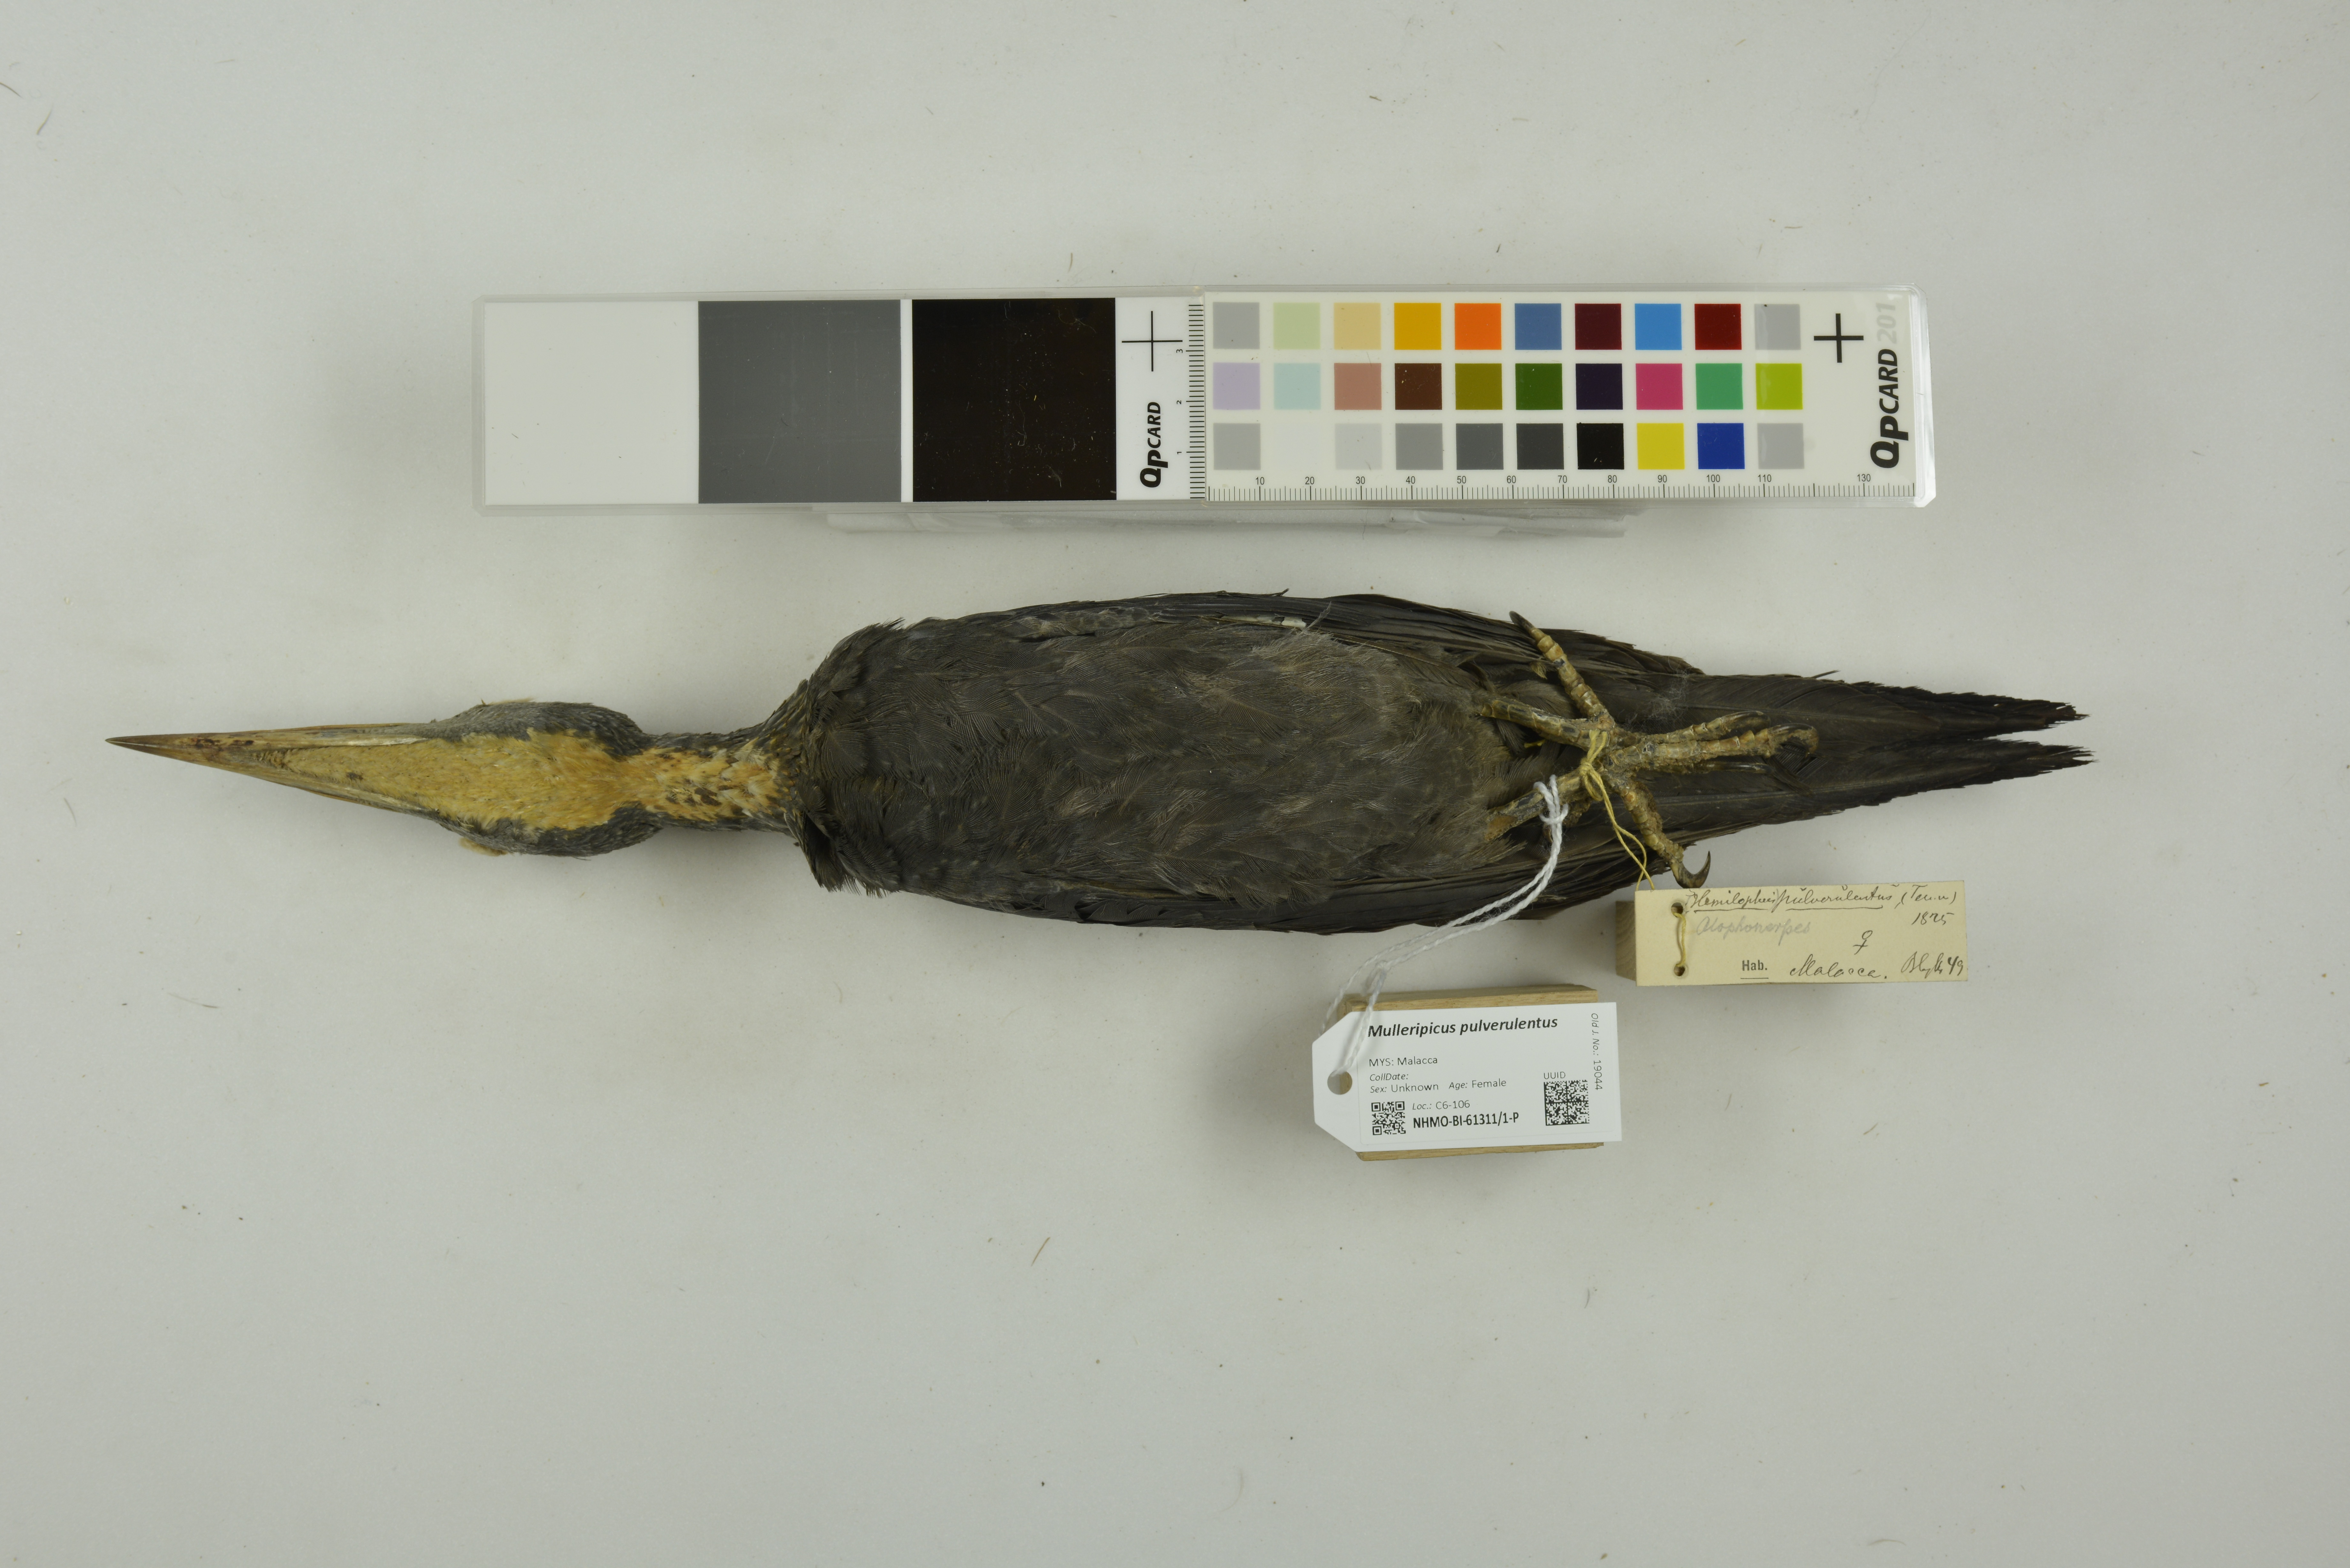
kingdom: Animalia
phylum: Chordata
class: Aves
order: Piciformes
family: Picidae
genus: Mulleripicus
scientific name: Mulleripicus pulverulentus
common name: Great slaty woodpecker
